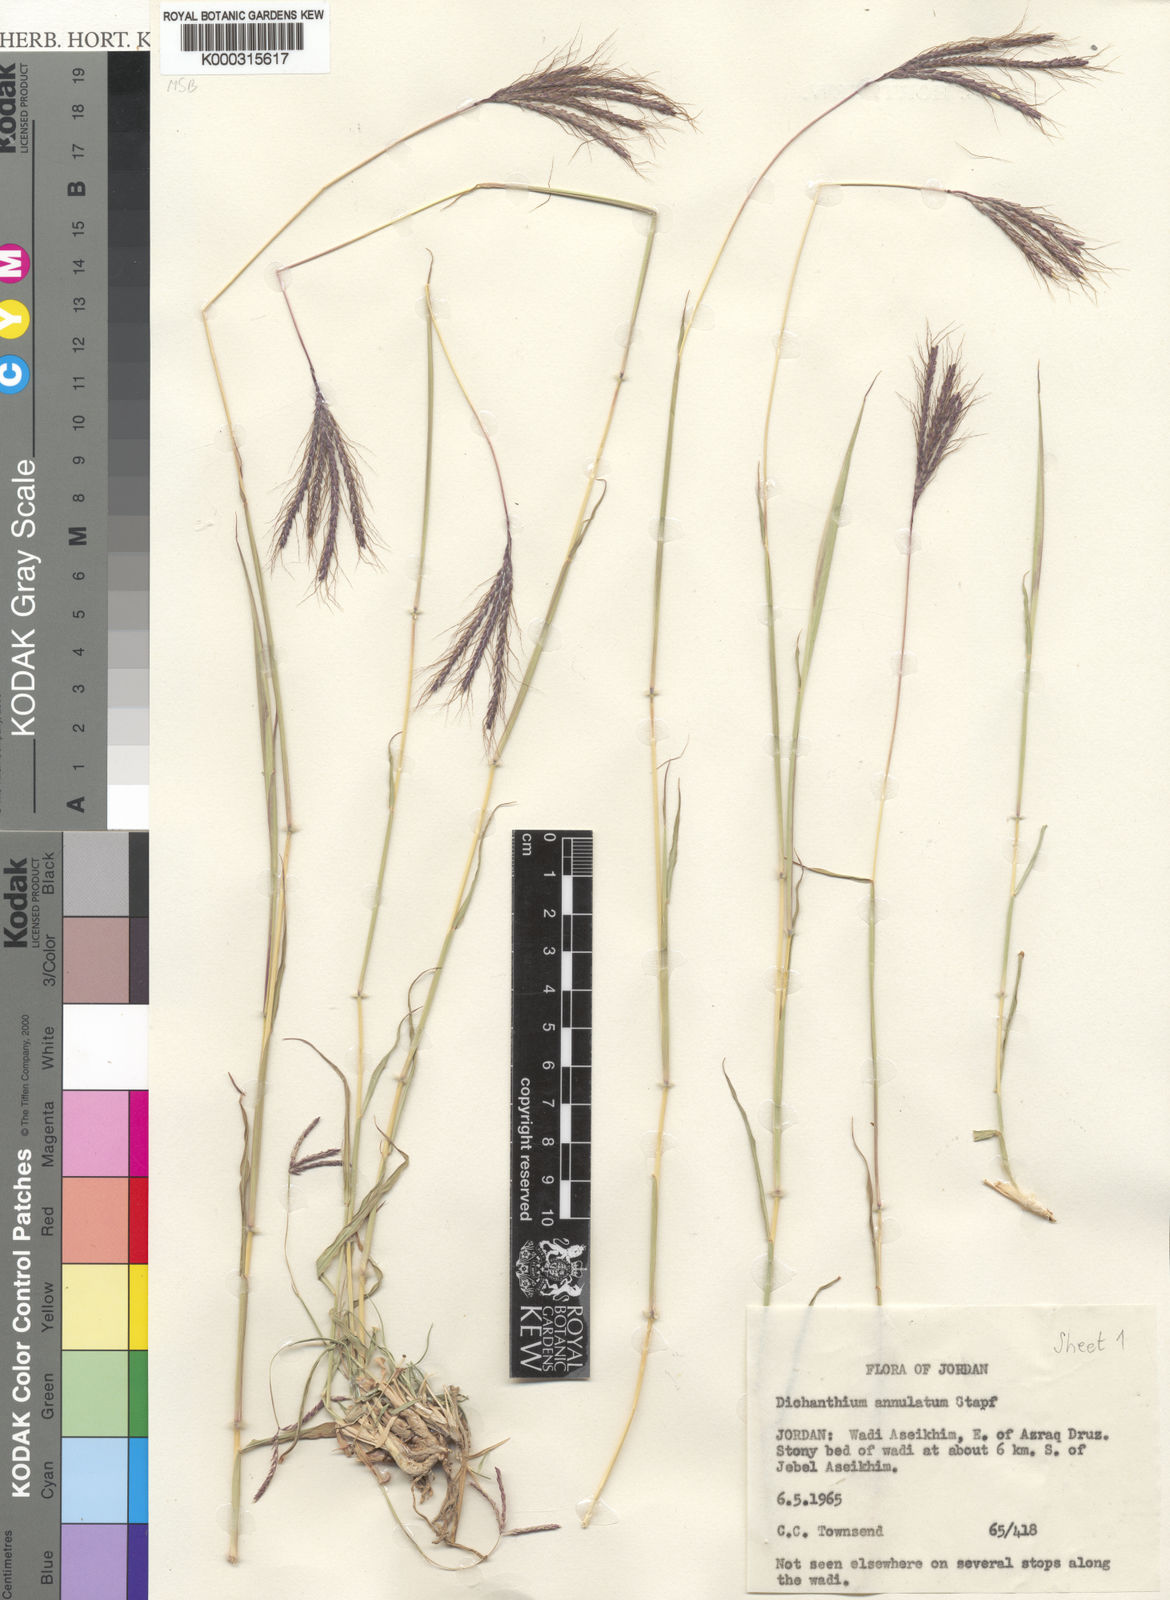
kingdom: Plantae
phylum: Tracheophyta
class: Liliopsida
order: Poales
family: Poaceae
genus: Dichanthium
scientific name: Dichanthium annulatum
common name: Kleberg's bluestem
